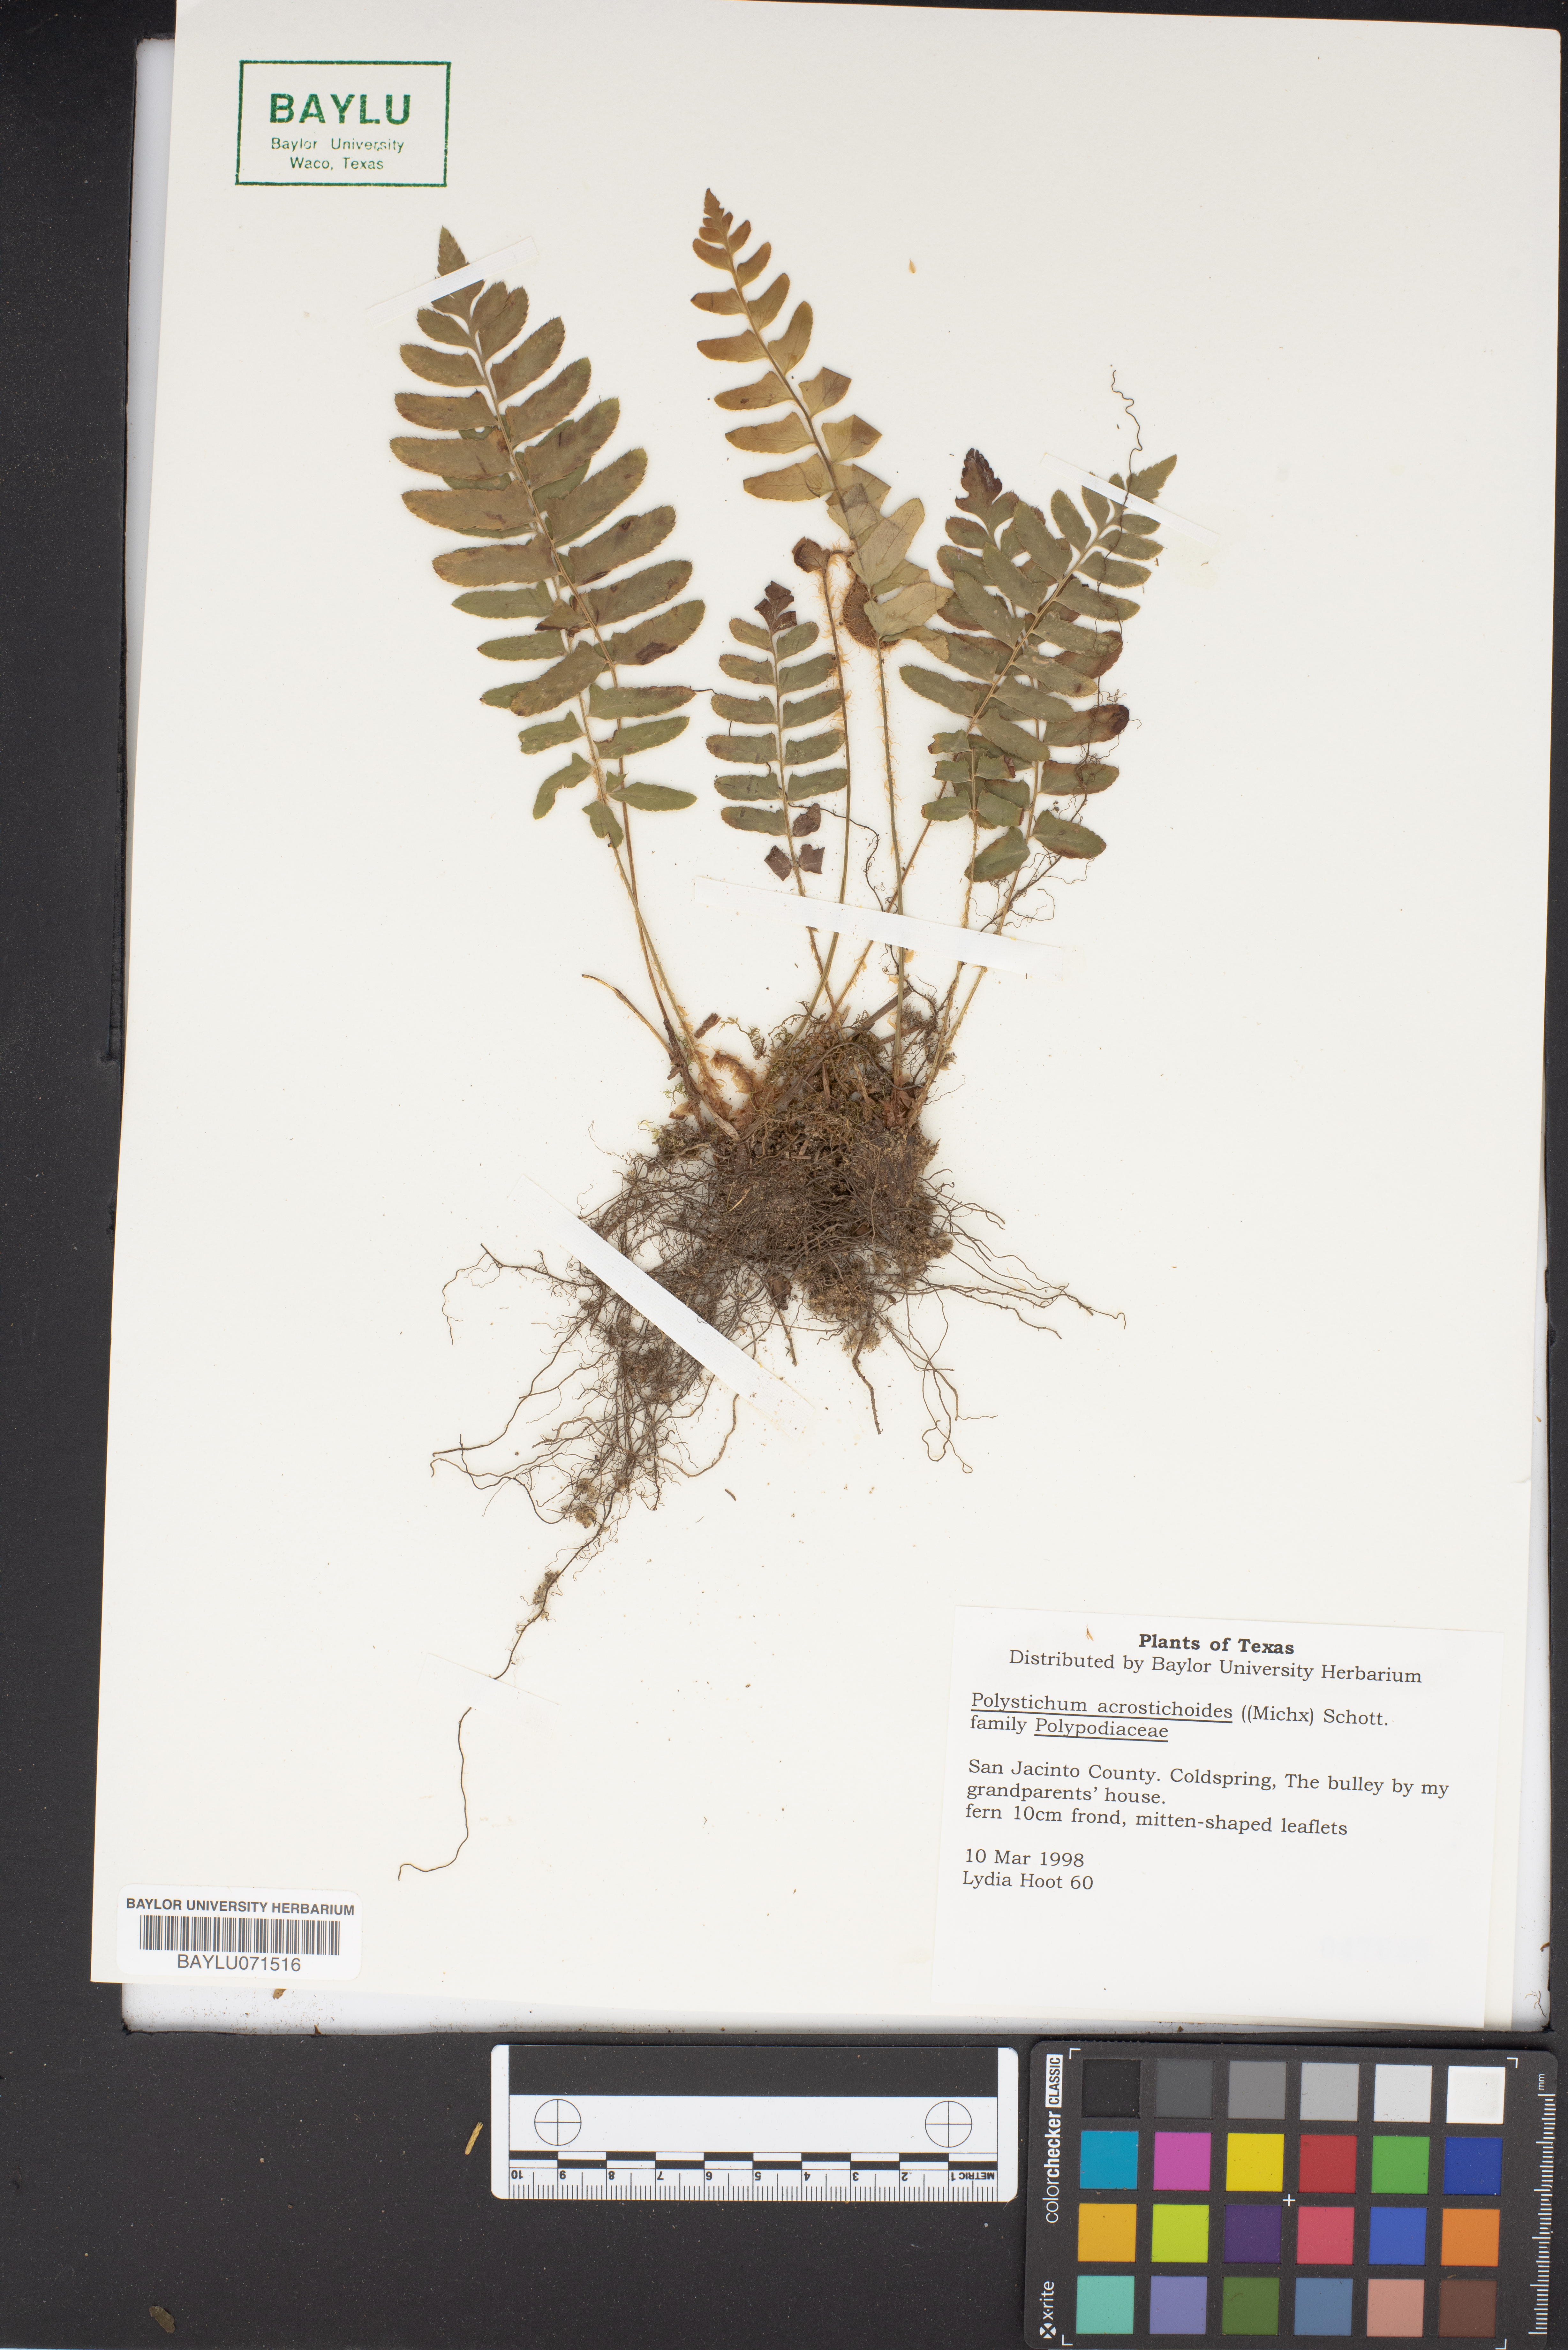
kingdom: Plantae
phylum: Tracheophyta
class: Polypodiopsida
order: Polypodiales
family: Dryopteridaceae
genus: Polystichum
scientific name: Polystichum acrostichoides
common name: Christmas fern
